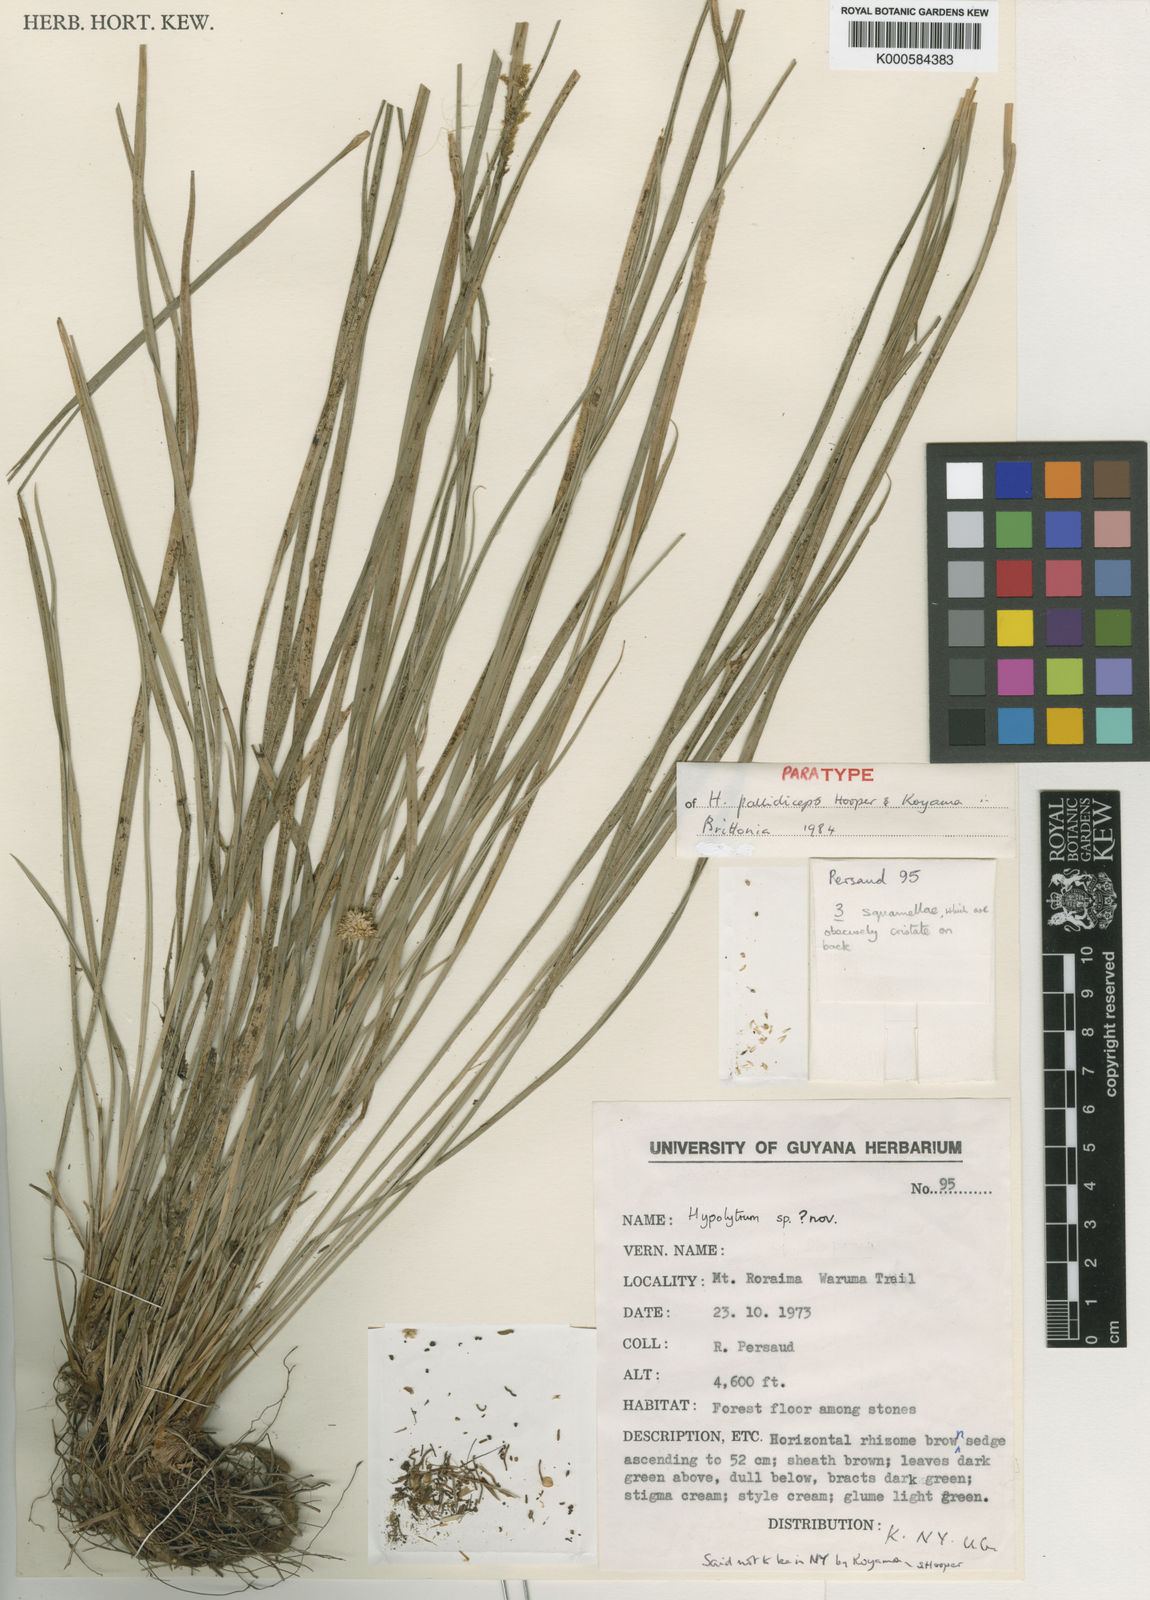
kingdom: Plantae
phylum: Tracheophyta
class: Liliopsida
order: Poales
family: Cyperaceae
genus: Hypolytrum
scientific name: Hypolytrum pallidiceps
